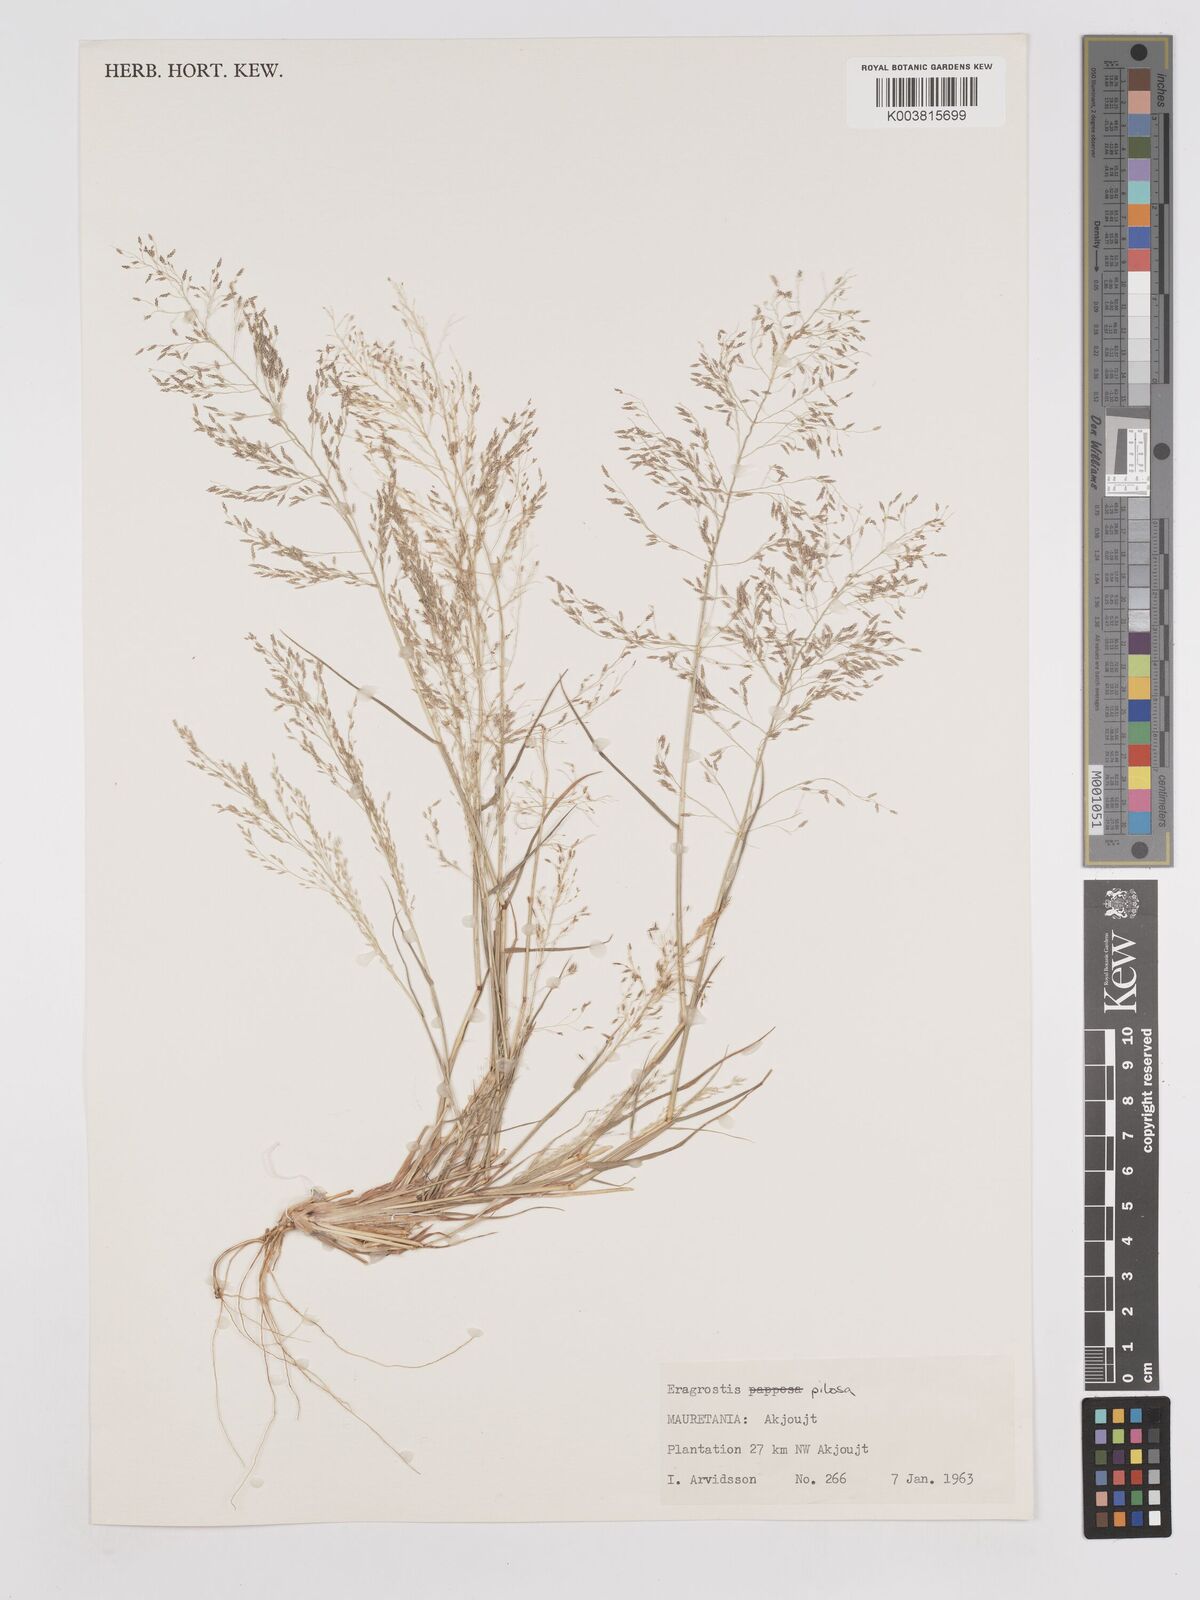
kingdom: Plantae
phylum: Tracheophyta
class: Liliopsida
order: Poales
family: Poaceae
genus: Eragrostis
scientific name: Eragrostis pilosa
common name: Indian lovegrass
